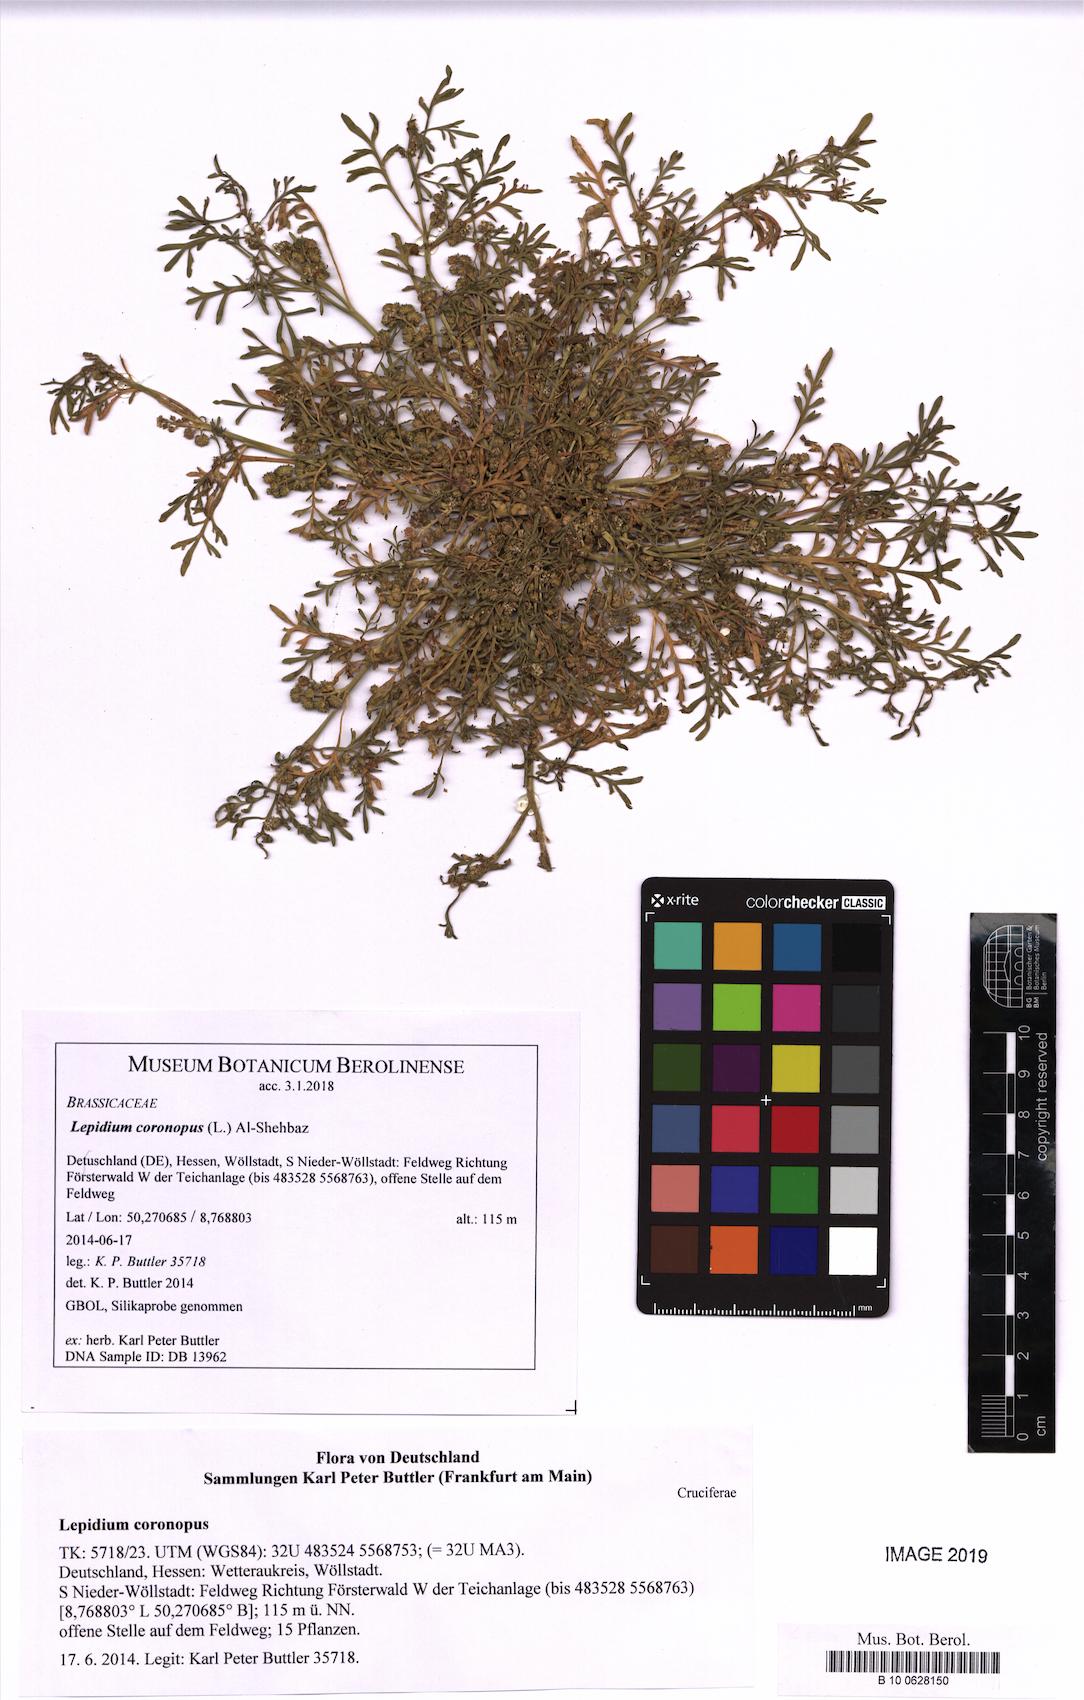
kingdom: Plantae
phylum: Tracheophyta
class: Magnoliopsida
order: Brassicales
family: Brassicaceae
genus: Lepidium
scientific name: Lepidium coronopus
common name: Greater swinecress
